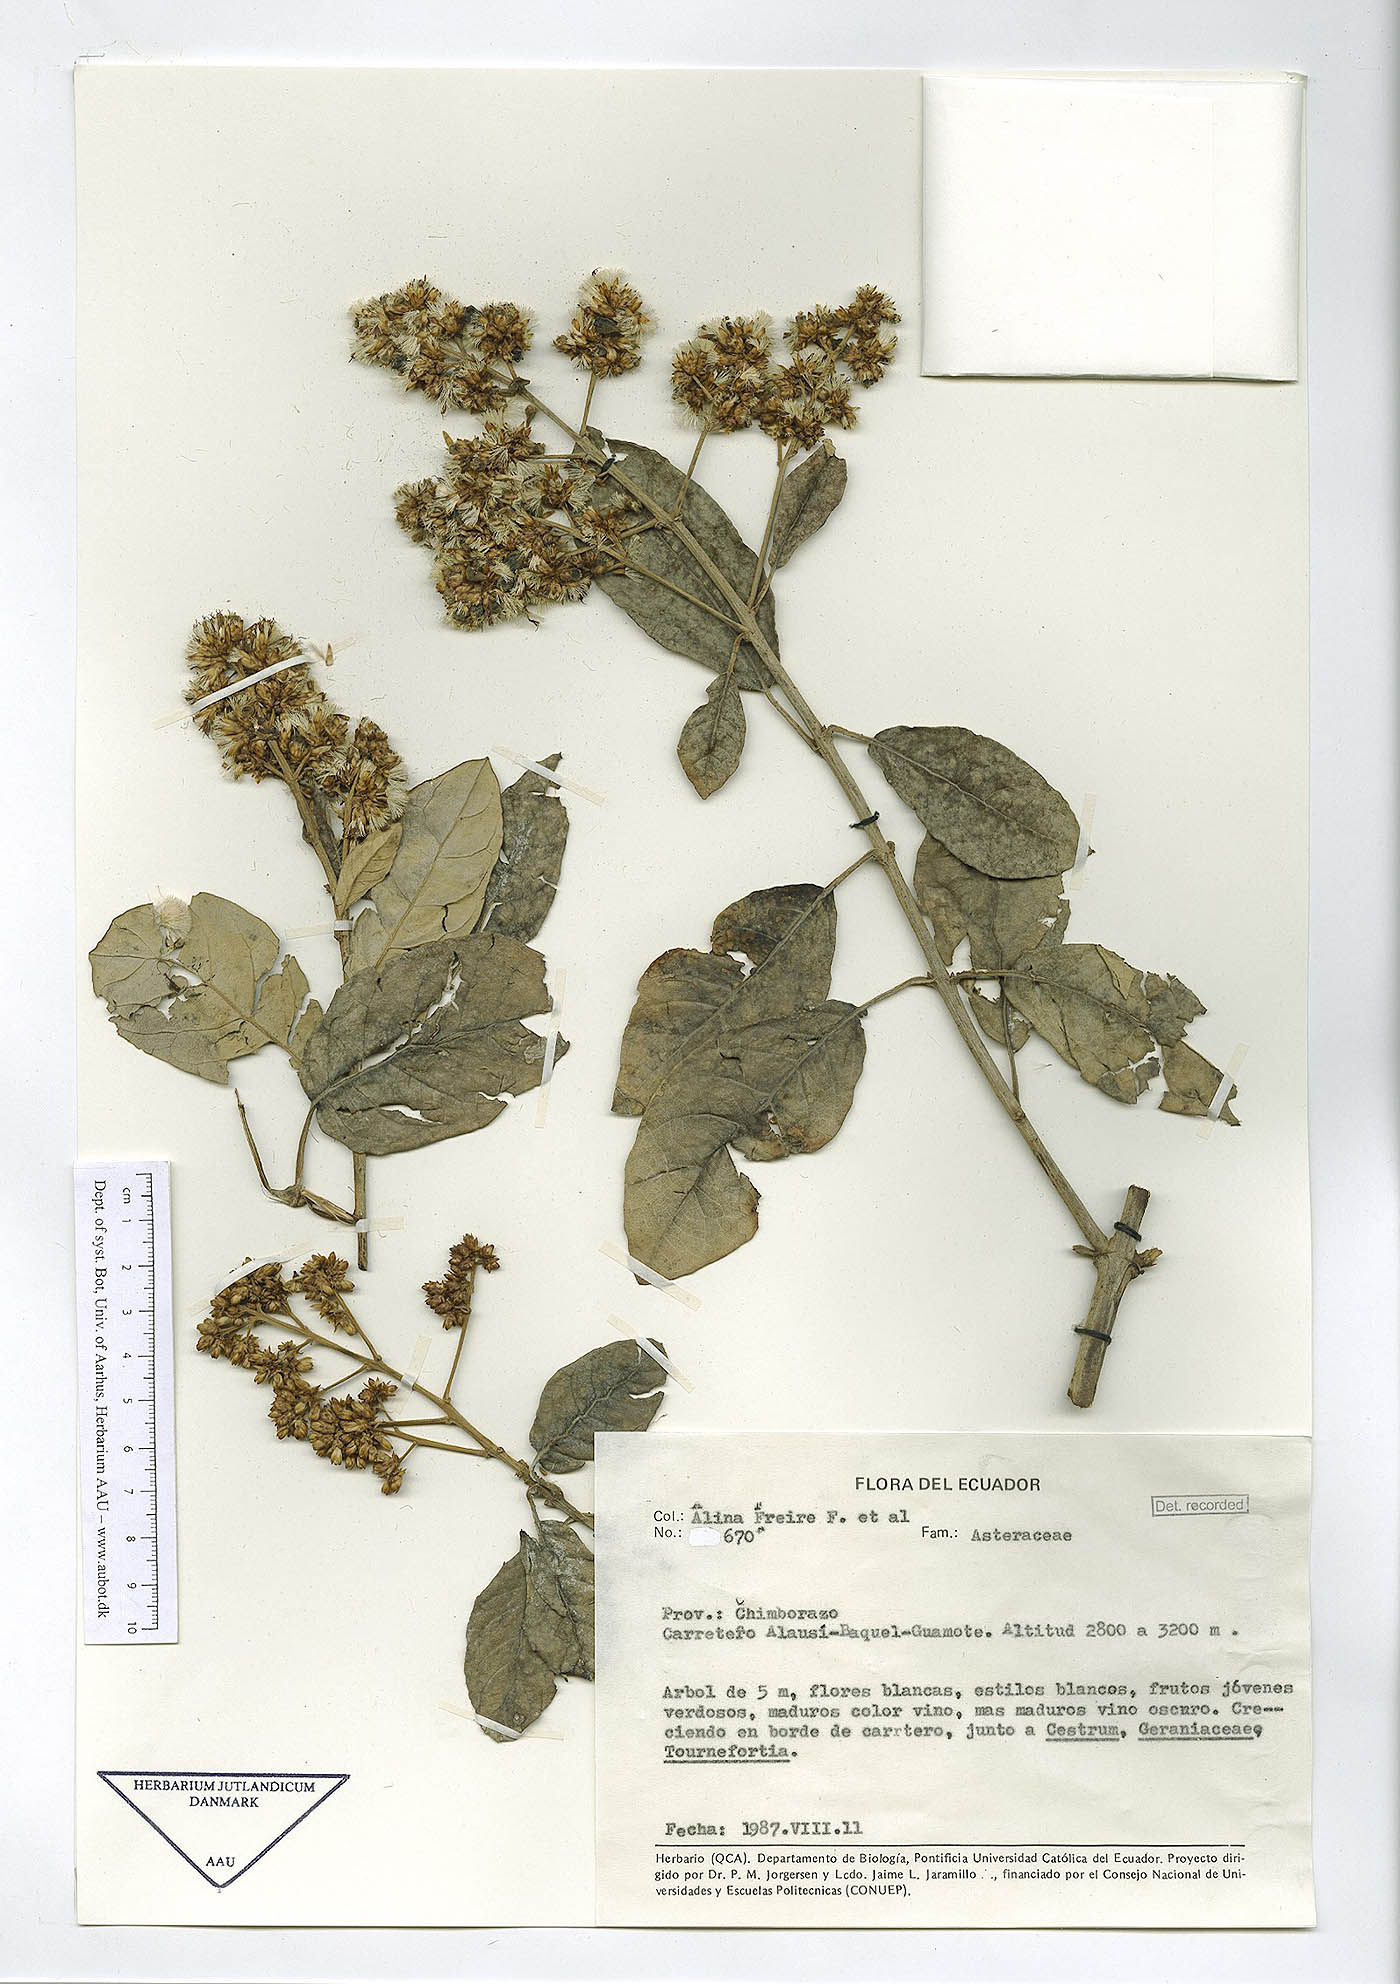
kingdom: Plantae
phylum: Tracheophyta
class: Magnoliopsida
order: Asterales
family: Asteraceae
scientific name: Asteraceae
